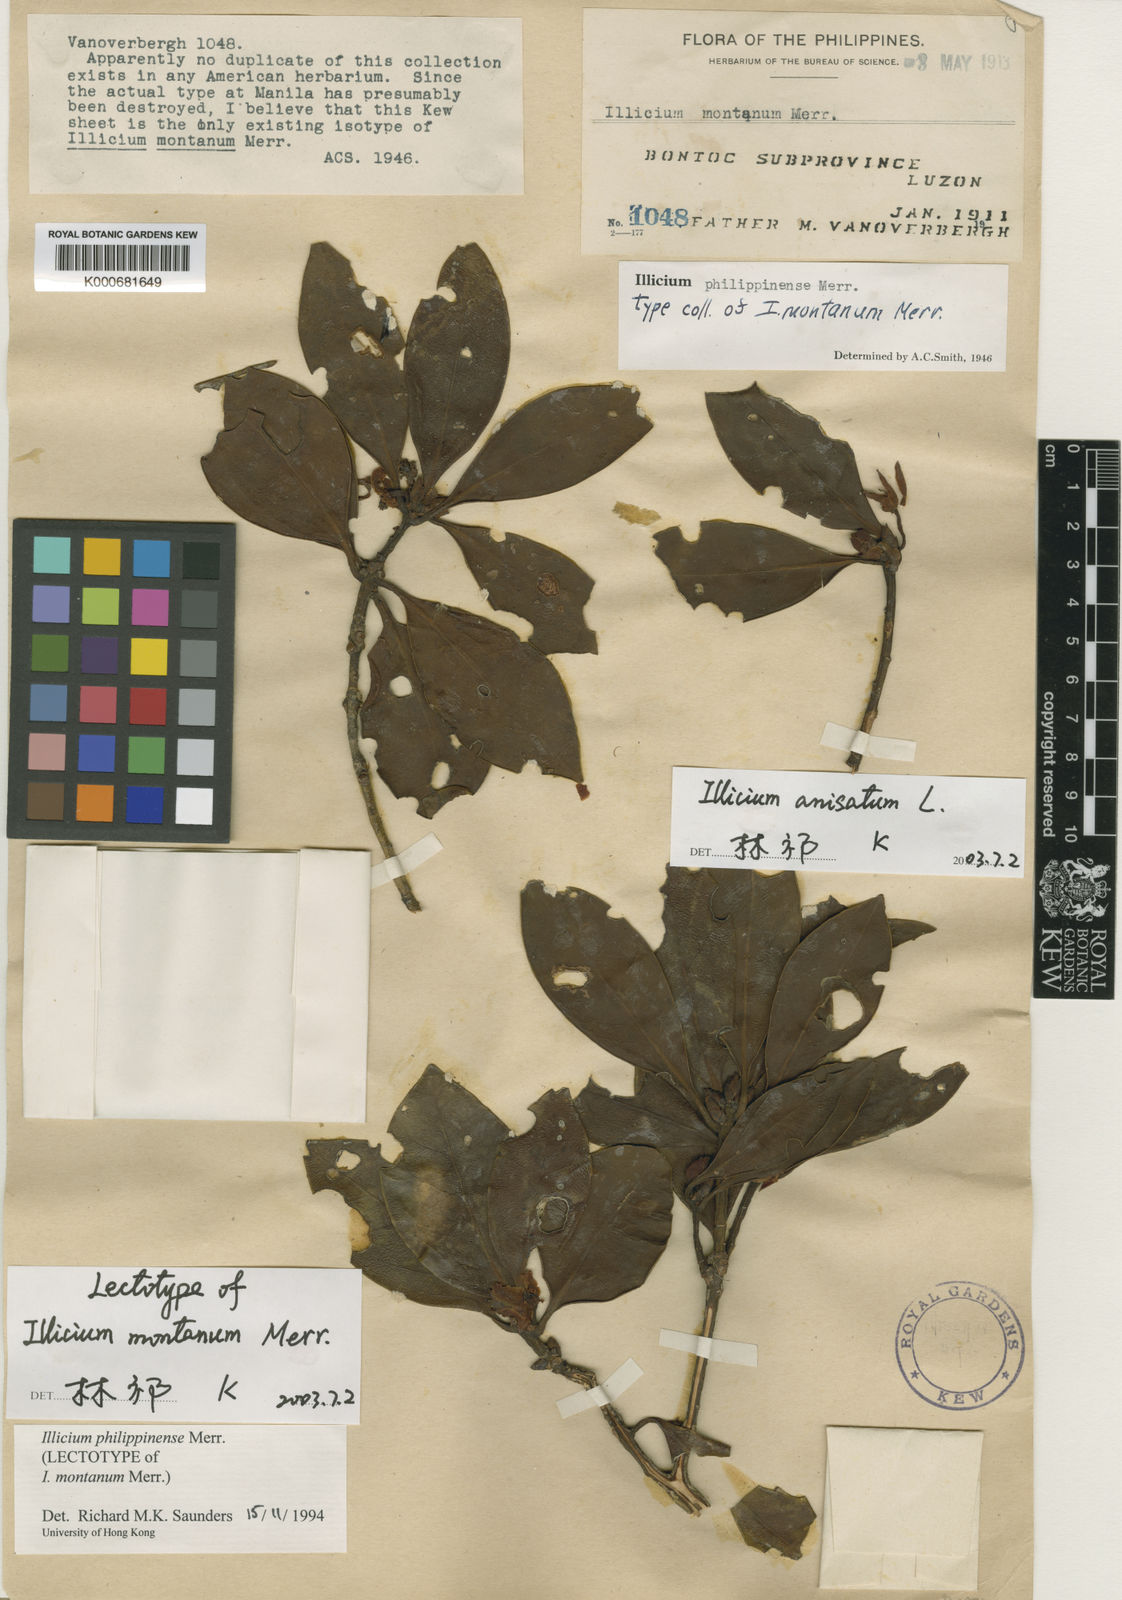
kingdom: Plantae
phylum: Tracheophyta
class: Magnoliopsida
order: Austrobaileyales
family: Schisandraceae
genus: Illicium
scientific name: Illicium philippinense
